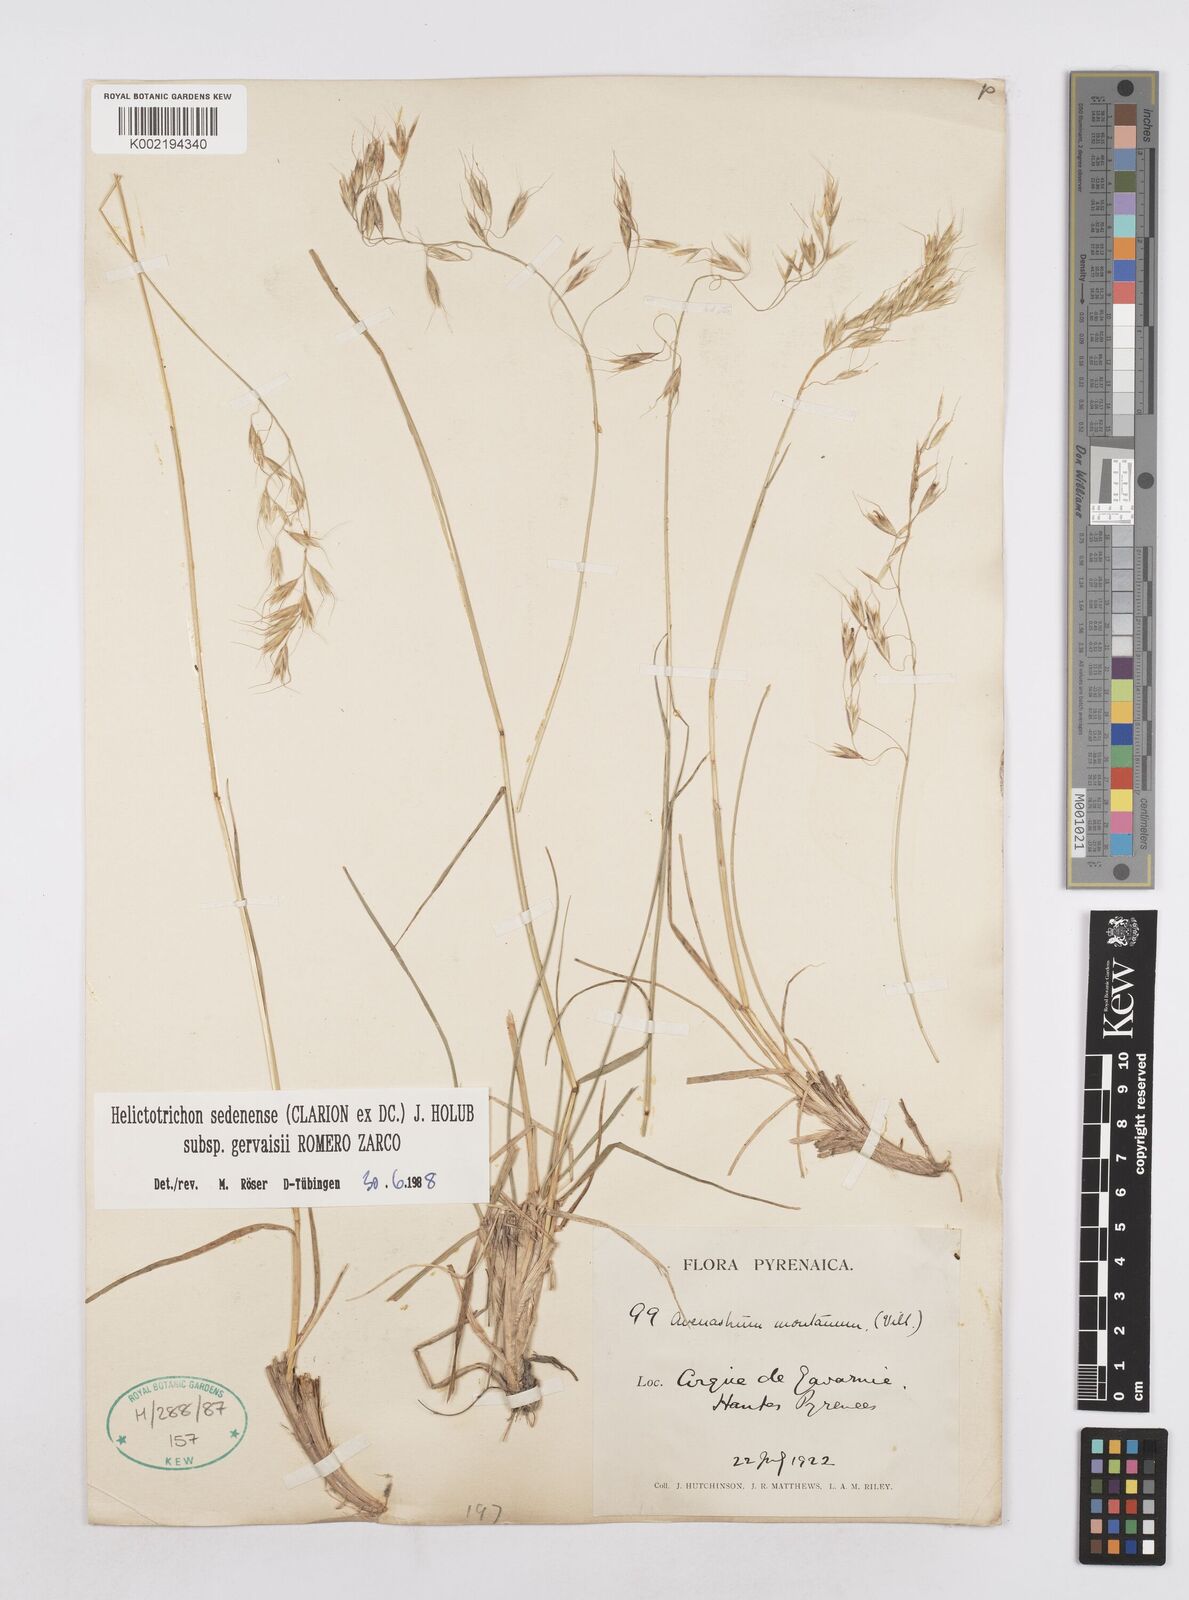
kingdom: Plantae
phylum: Tracheophyta
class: Liliopsida
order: Poales
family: Poaceae
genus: Helictotrichon
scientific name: Helictotrichon sedenense
